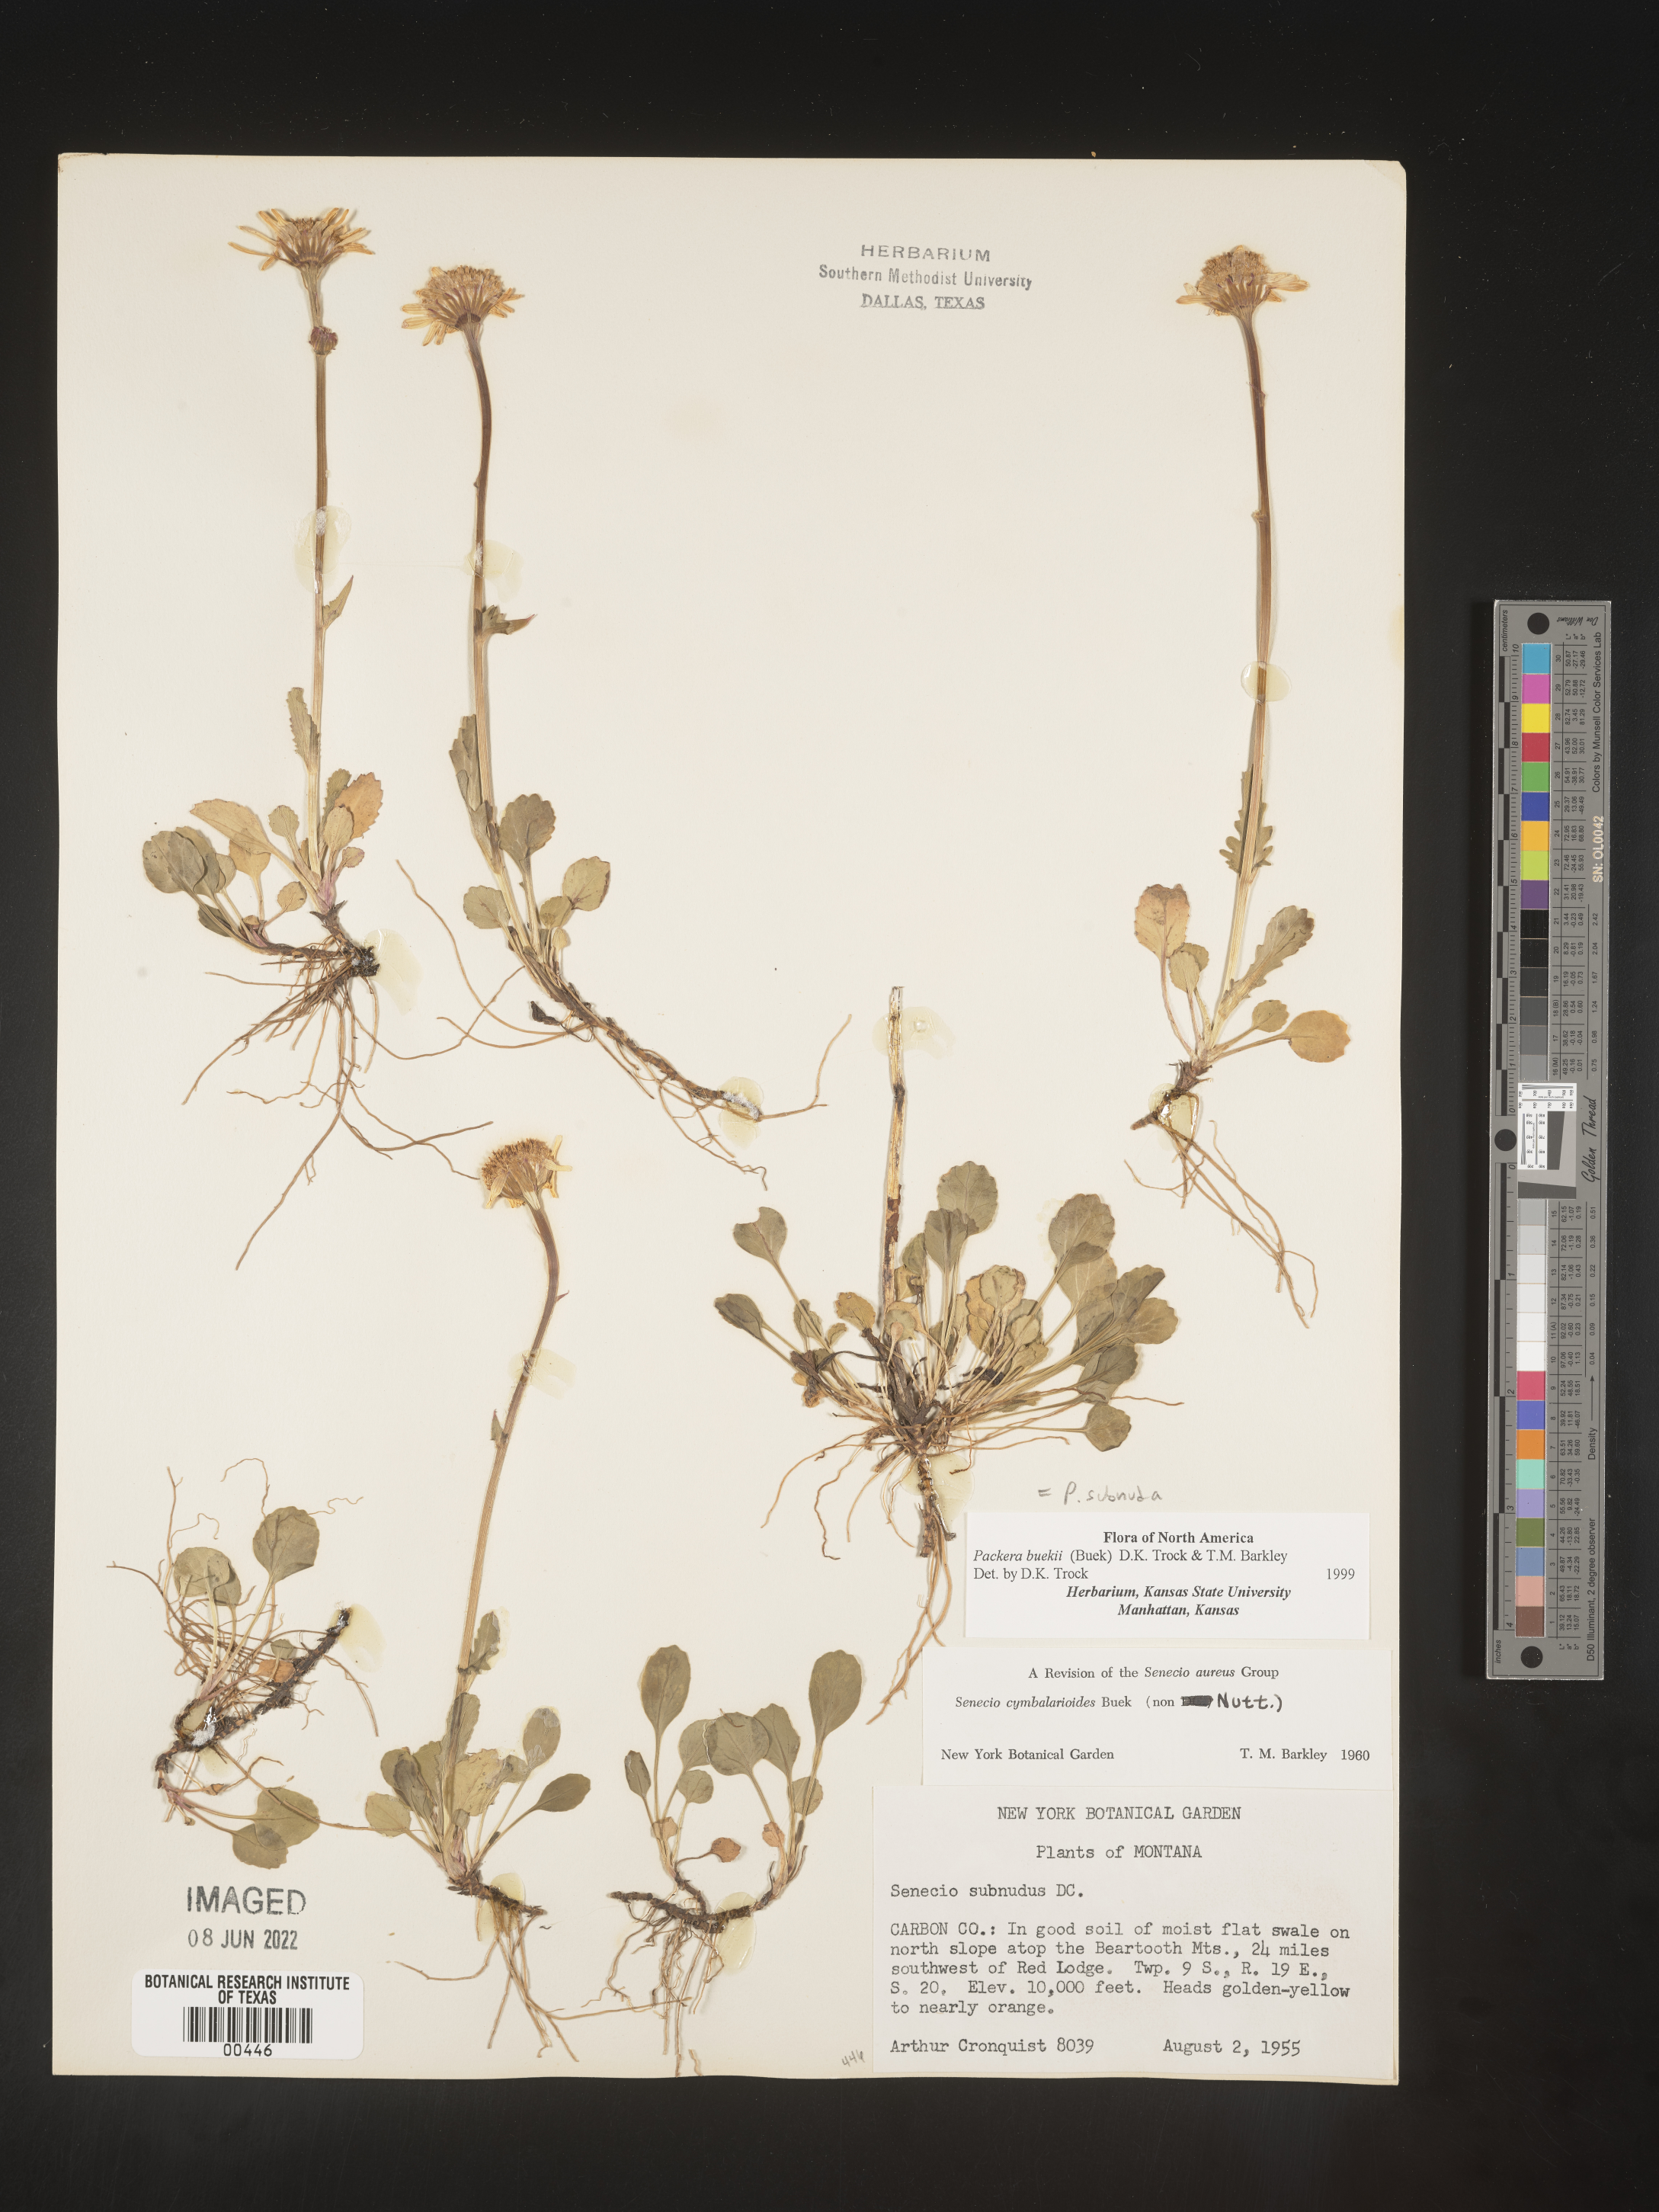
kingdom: Plantae
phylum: Tracheophyta
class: Magnoliopsida
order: Asterales
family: Asteraceae
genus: Packera
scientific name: Packera subnuda
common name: Buek's groundsel
